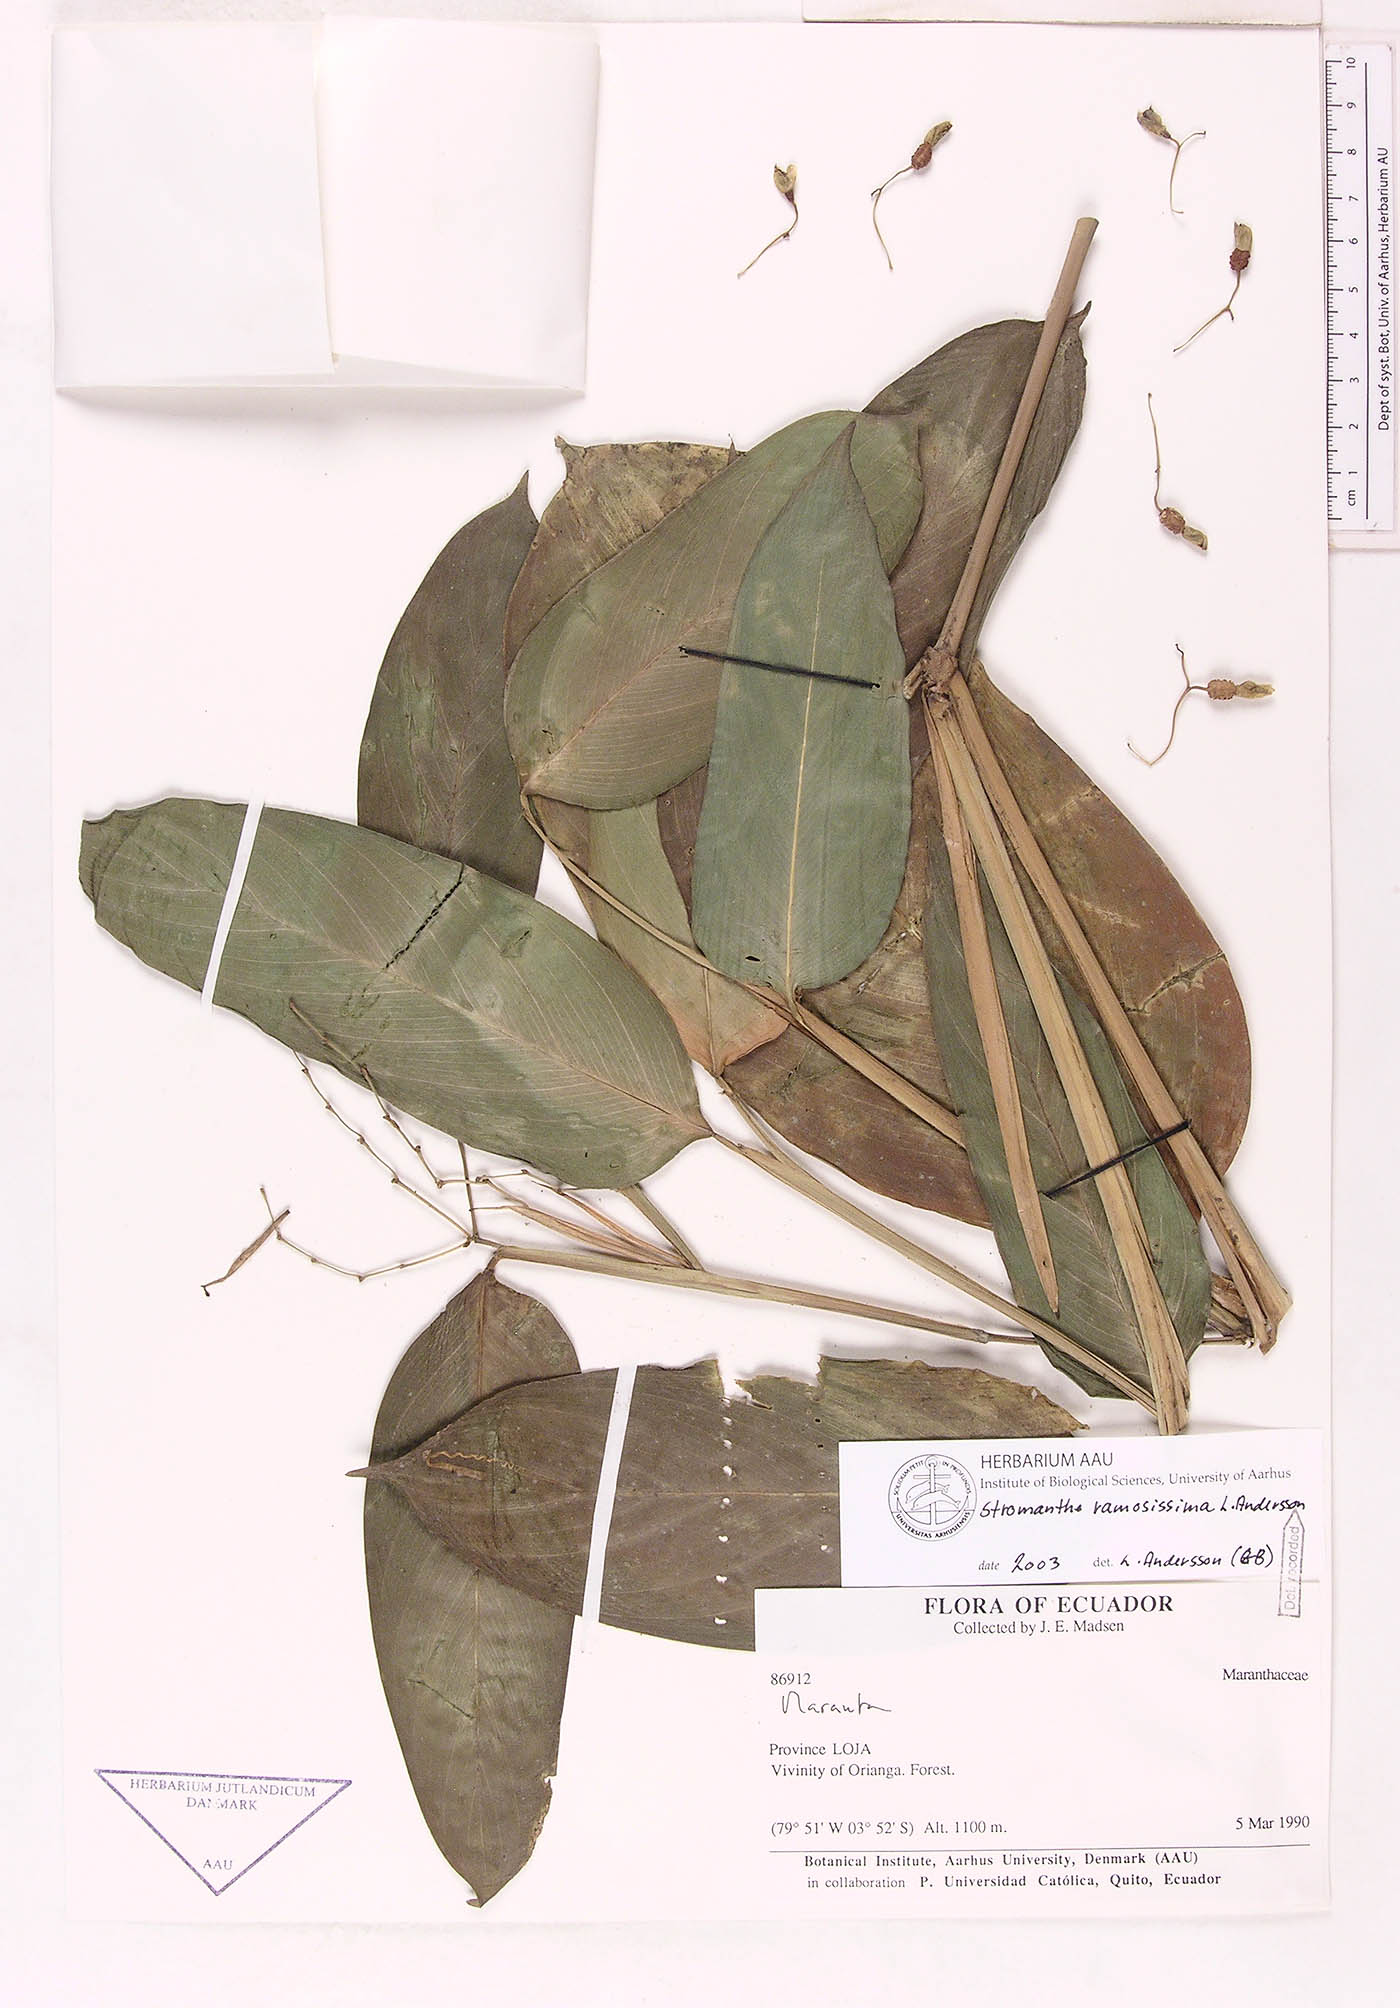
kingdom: Plantae
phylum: Tracheophyta
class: Liliopsida
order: Zingiberales
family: Marantaceae
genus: Stromanthe
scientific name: Stromanthe ramosissima
